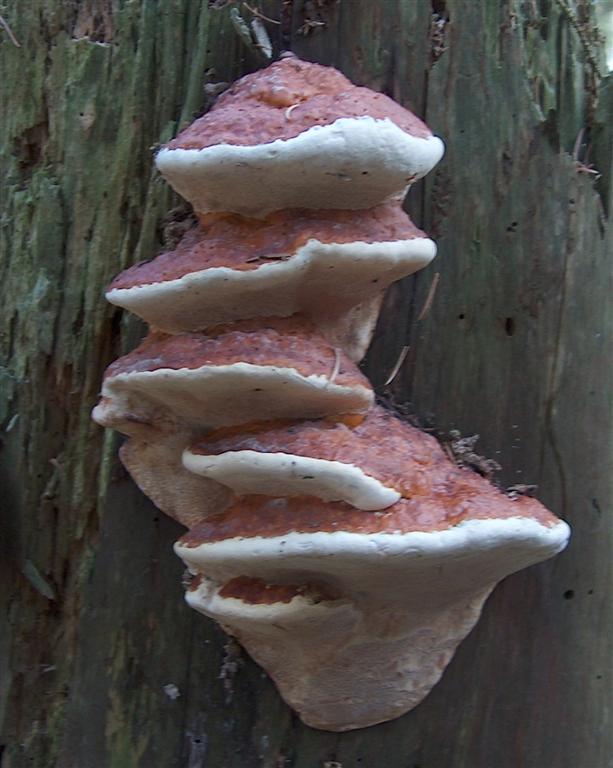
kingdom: Fungi
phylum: Basidiomycota
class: Agaricomycetes
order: Polyporales
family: Fomitopsidaceae
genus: Fomitopsis
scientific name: Fomitopsis pinicola
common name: randbæltet hovporesvamp
